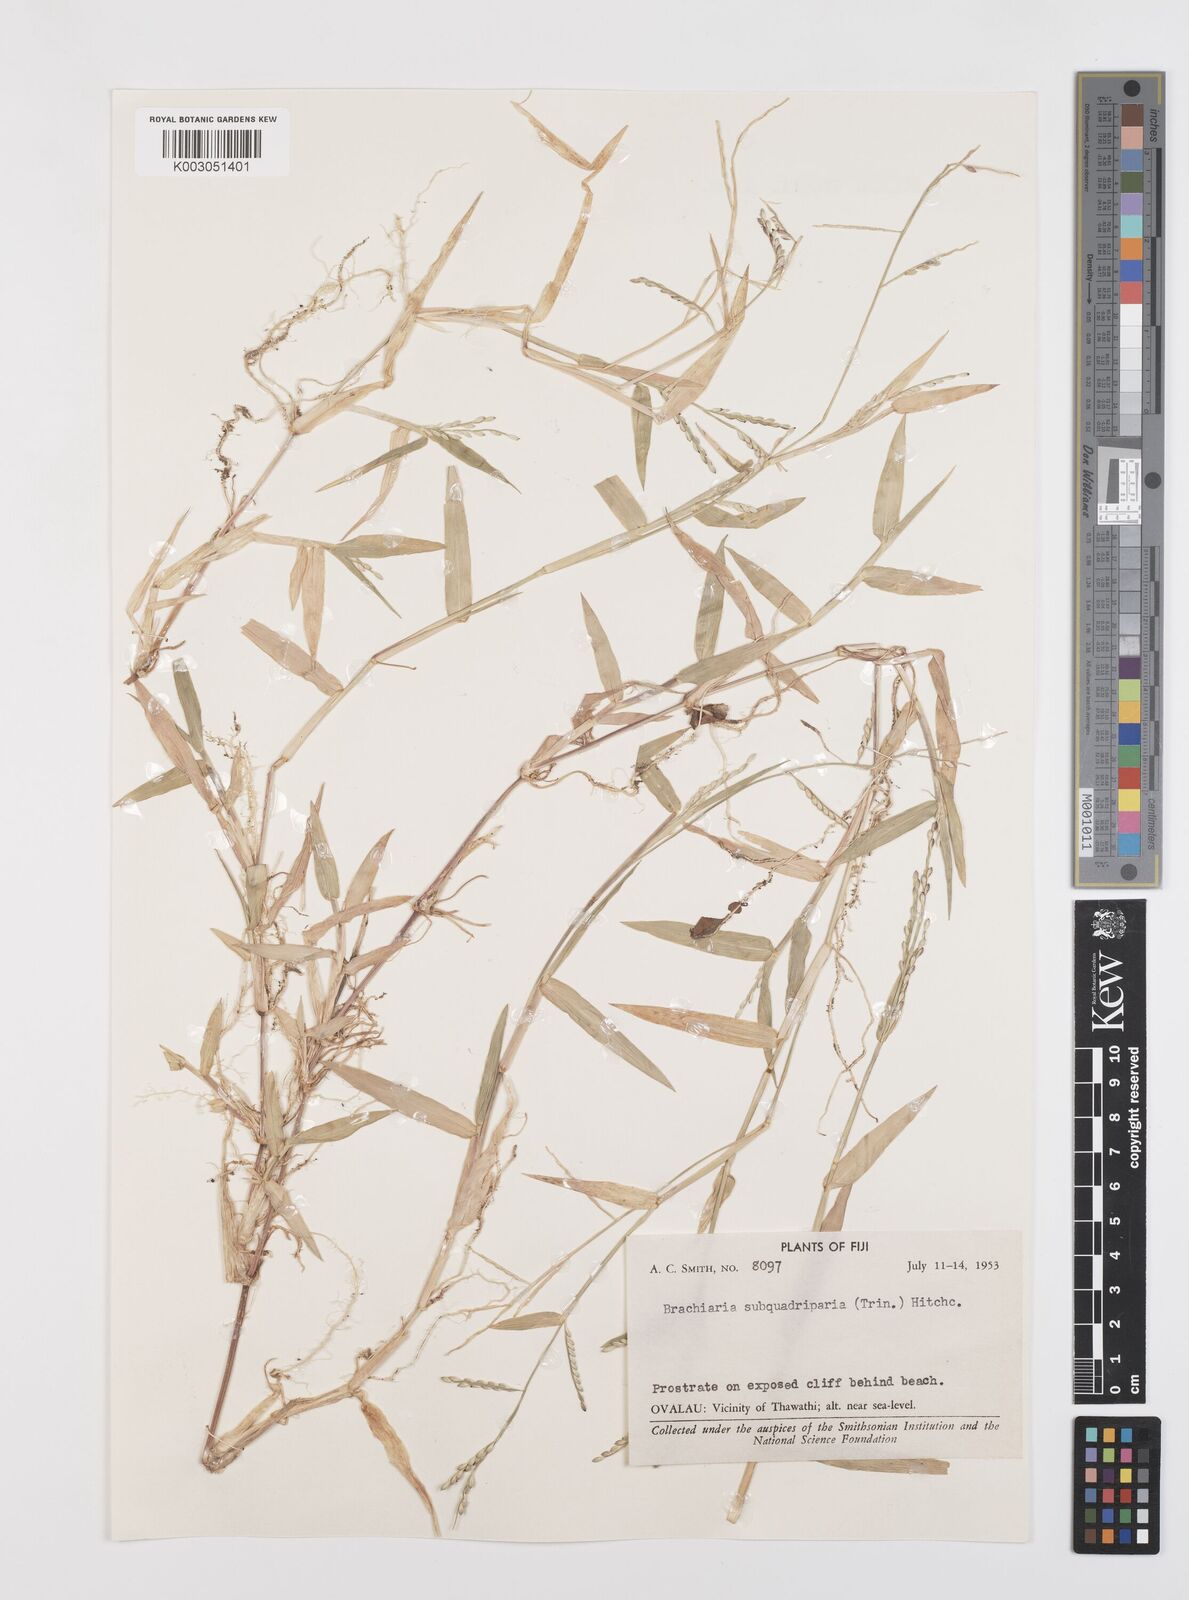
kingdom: Plantae
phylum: Tracheophyta
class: Liliopsida
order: Poales
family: Poaceae
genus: Urochloa
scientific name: Urochloa subquadripara
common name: Armgrass millet
